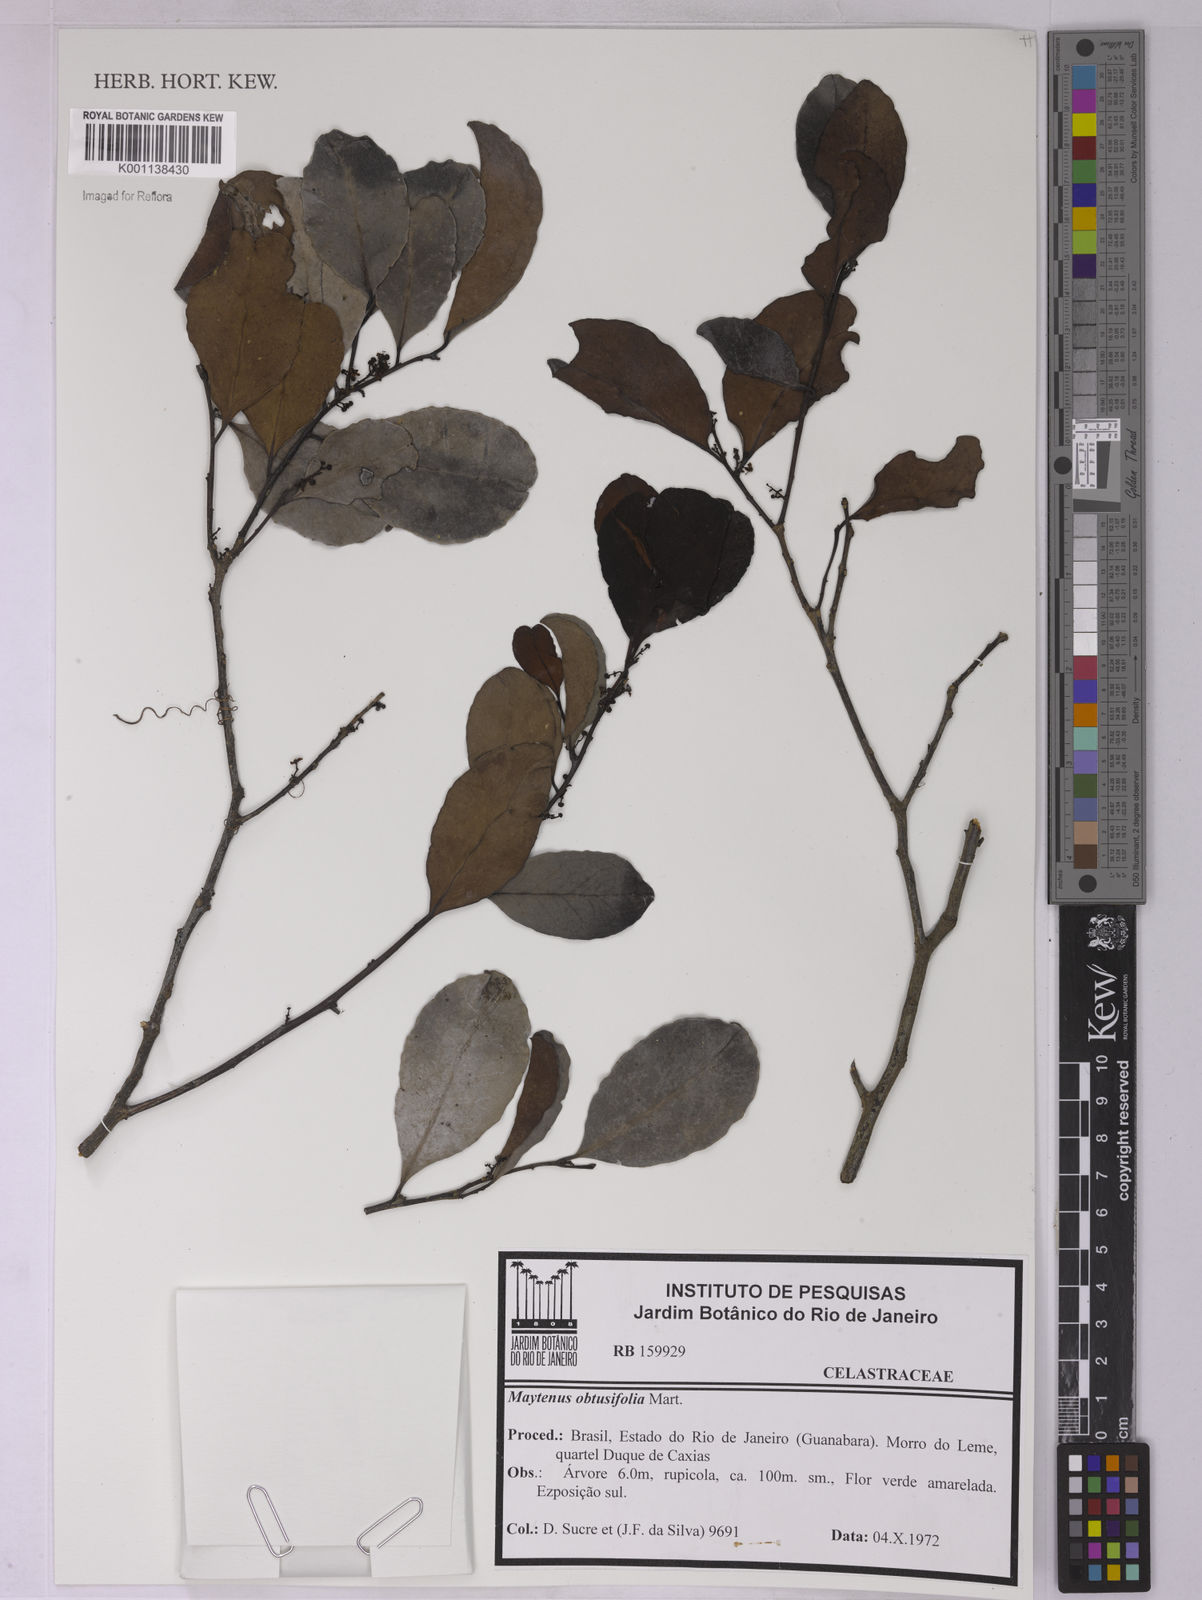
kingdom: Plantae
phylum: Tracheophyta
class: Magnoliopsida
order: Celastrales
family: Celastraceae
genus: Monteverdia
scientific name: Monteverdia obtusifolia
